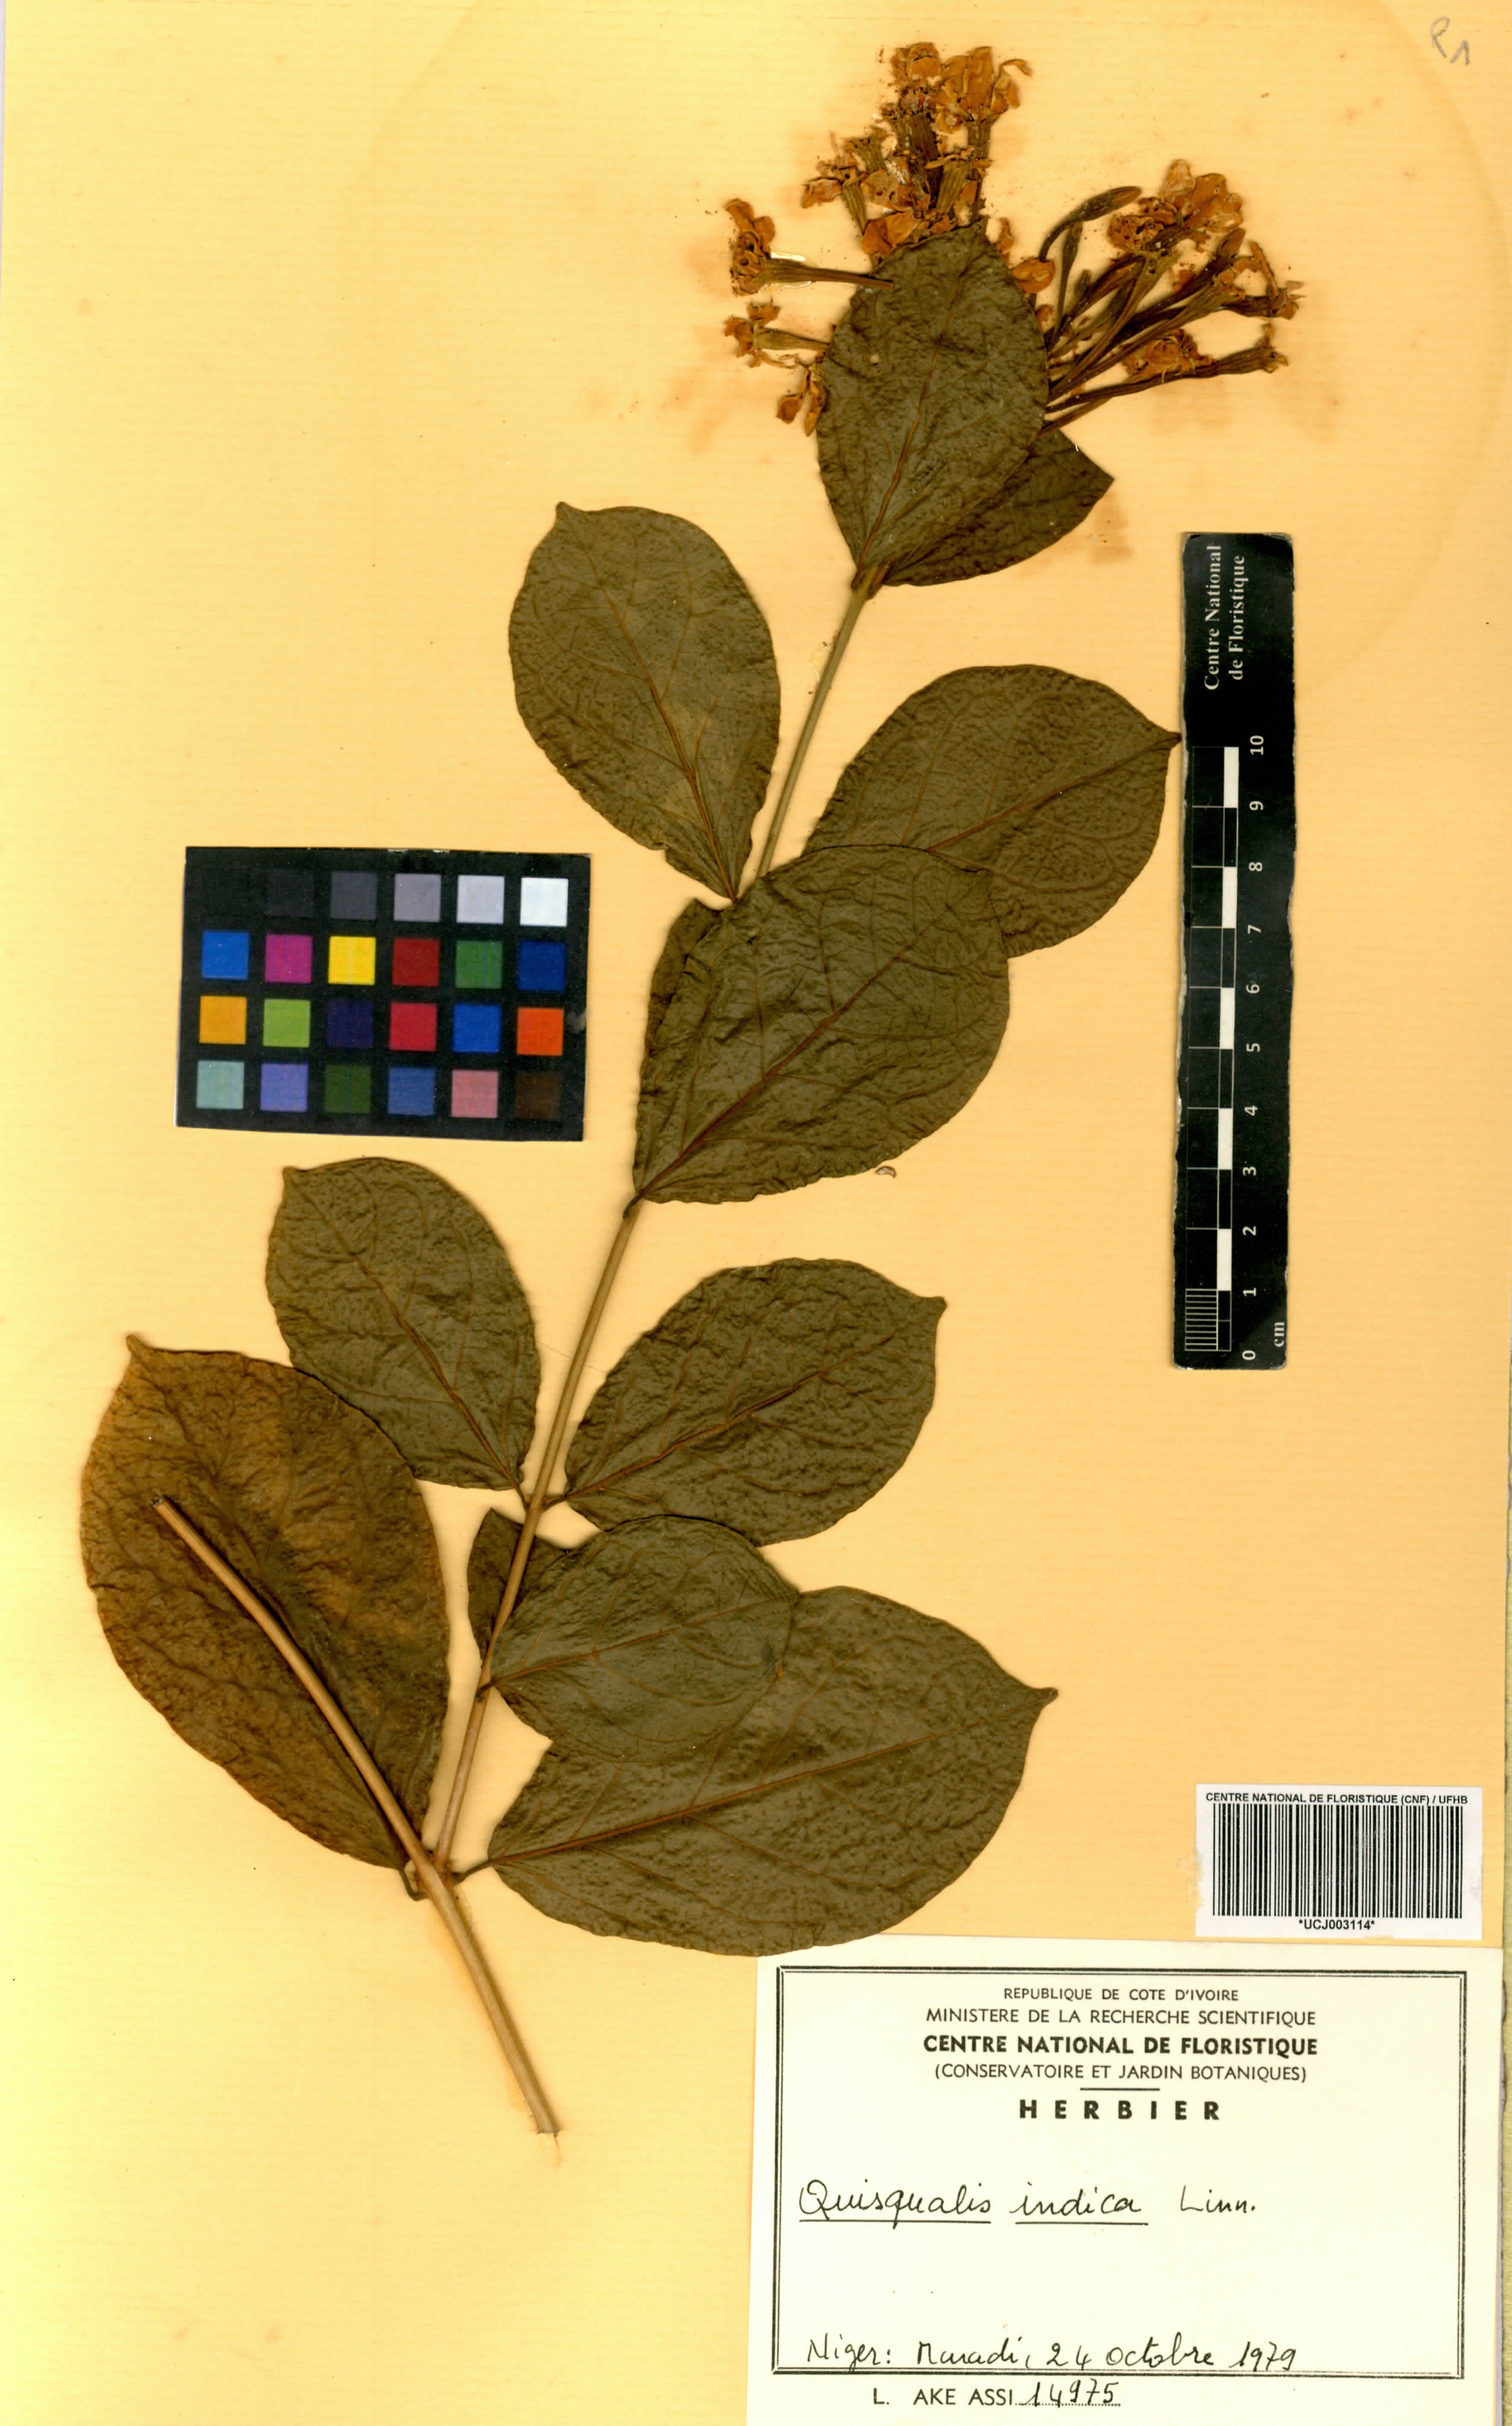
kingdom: Plantae
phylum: Tracheophyta
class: Magnoliopsida
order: Myrtales
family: Combretaceae
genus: Combretum
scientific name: Combretum indicum
